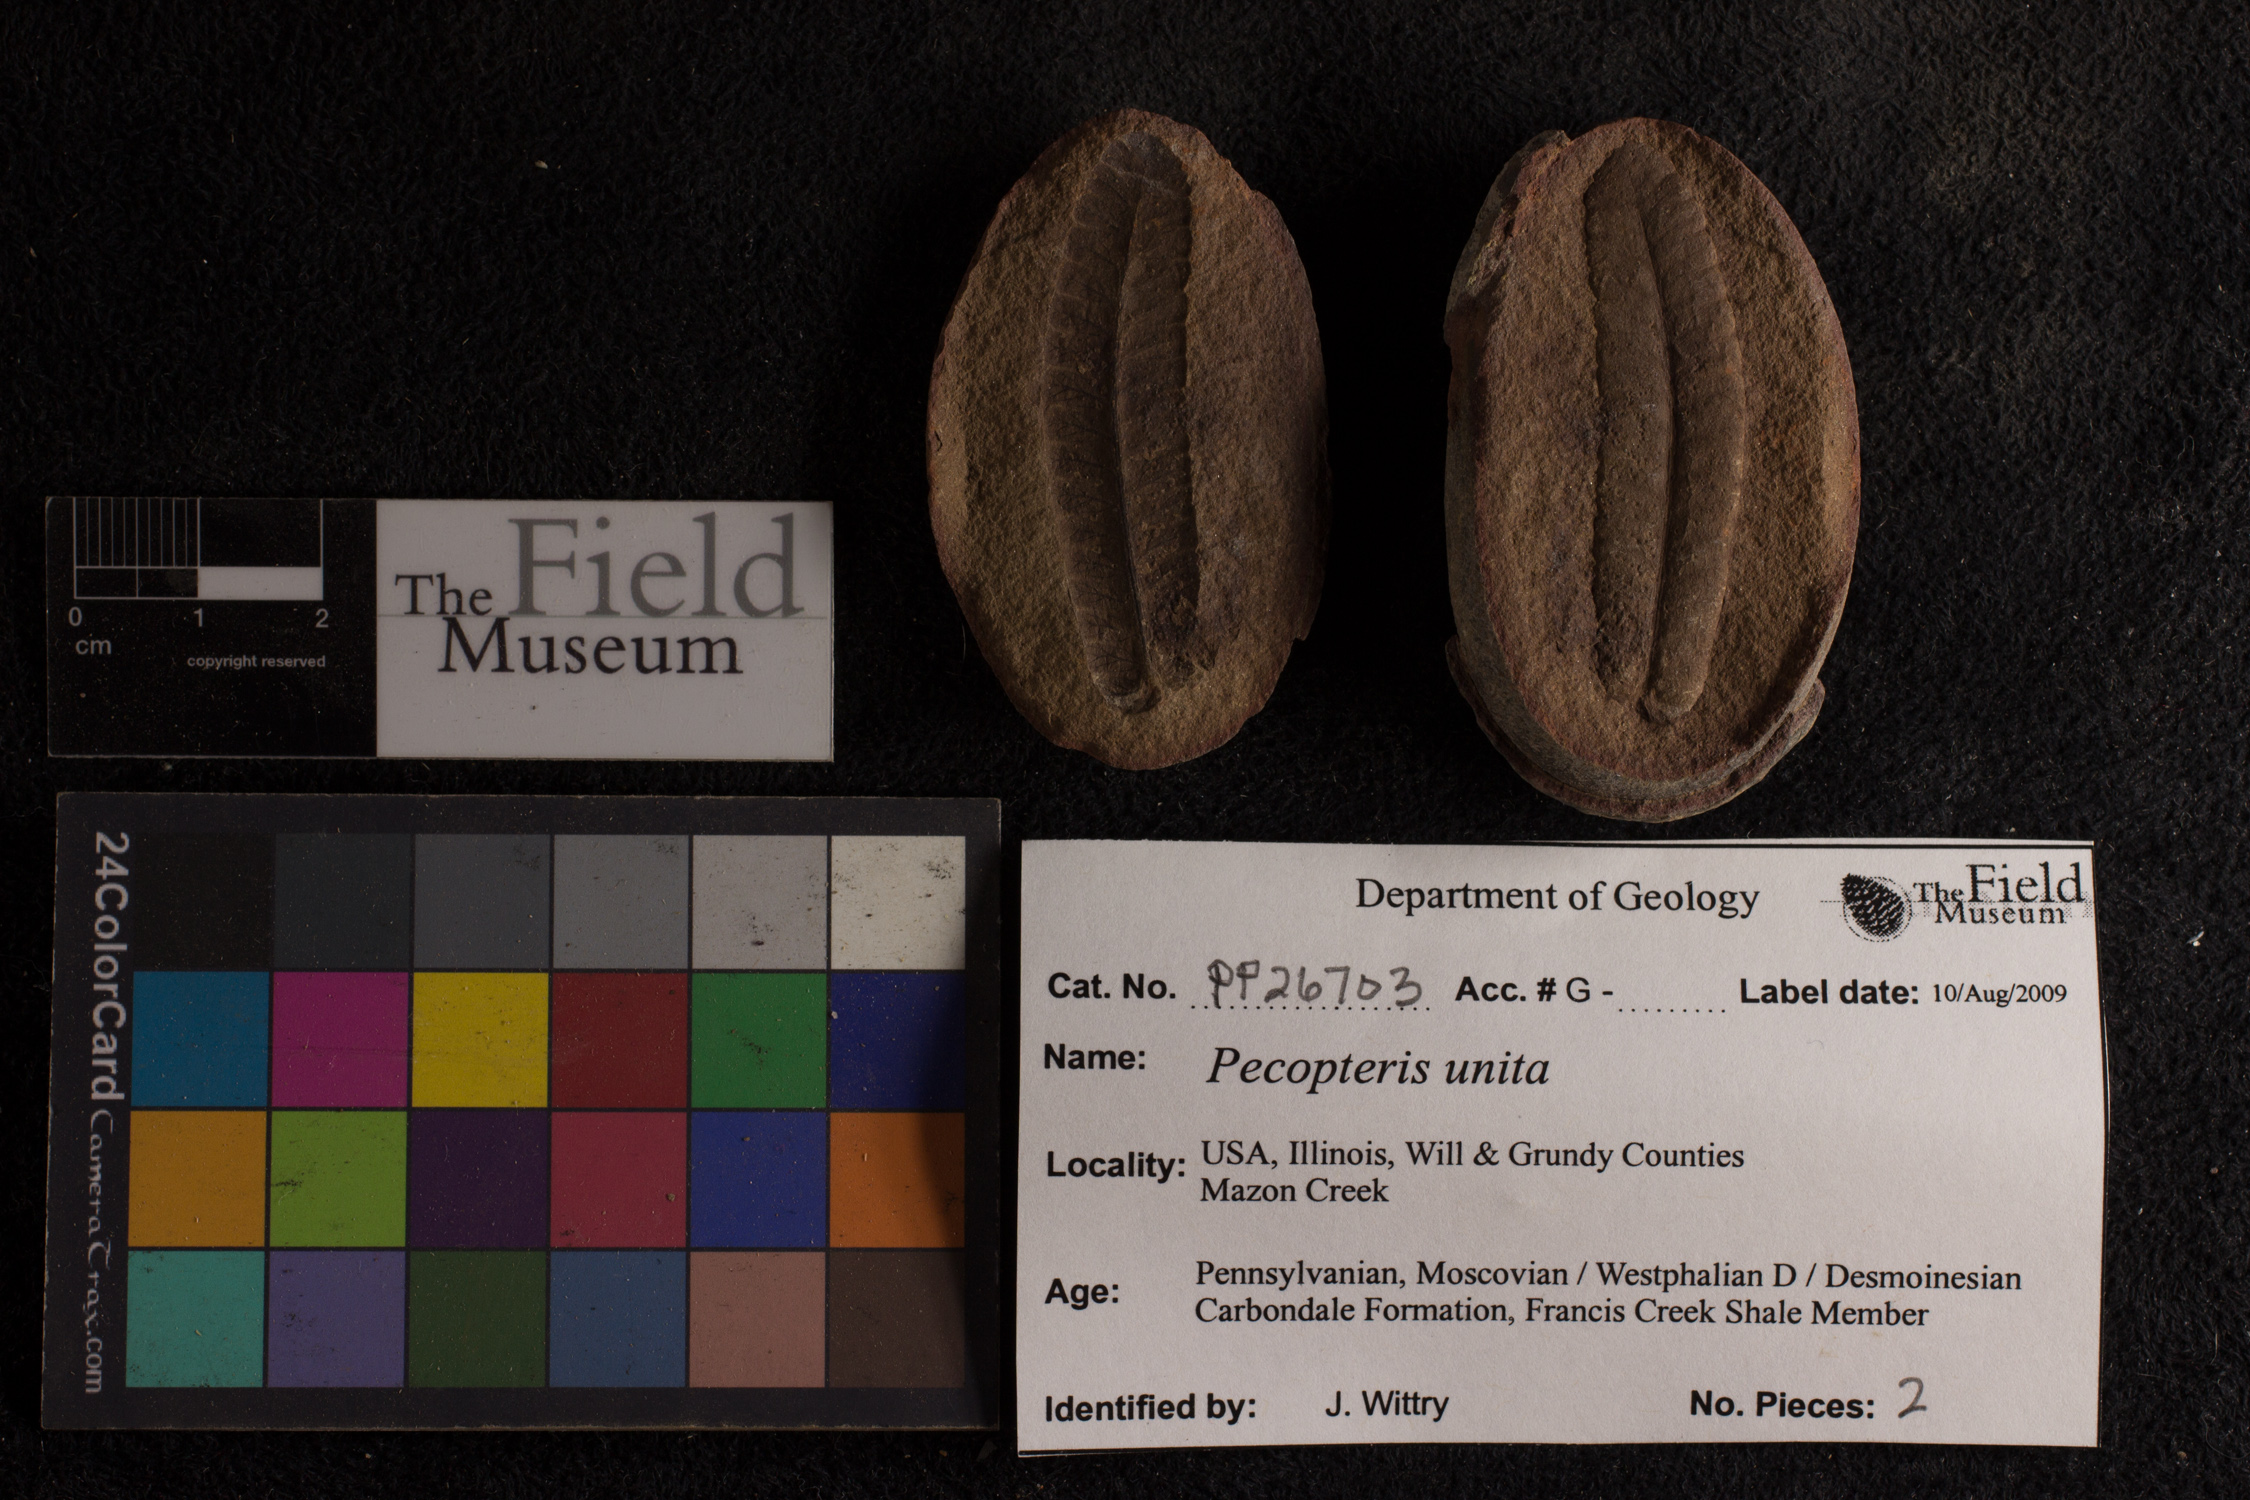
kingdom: Plantae
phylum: Tracheophyta
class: Polypodiopsida
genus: Diplazites
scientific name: Diplazites
